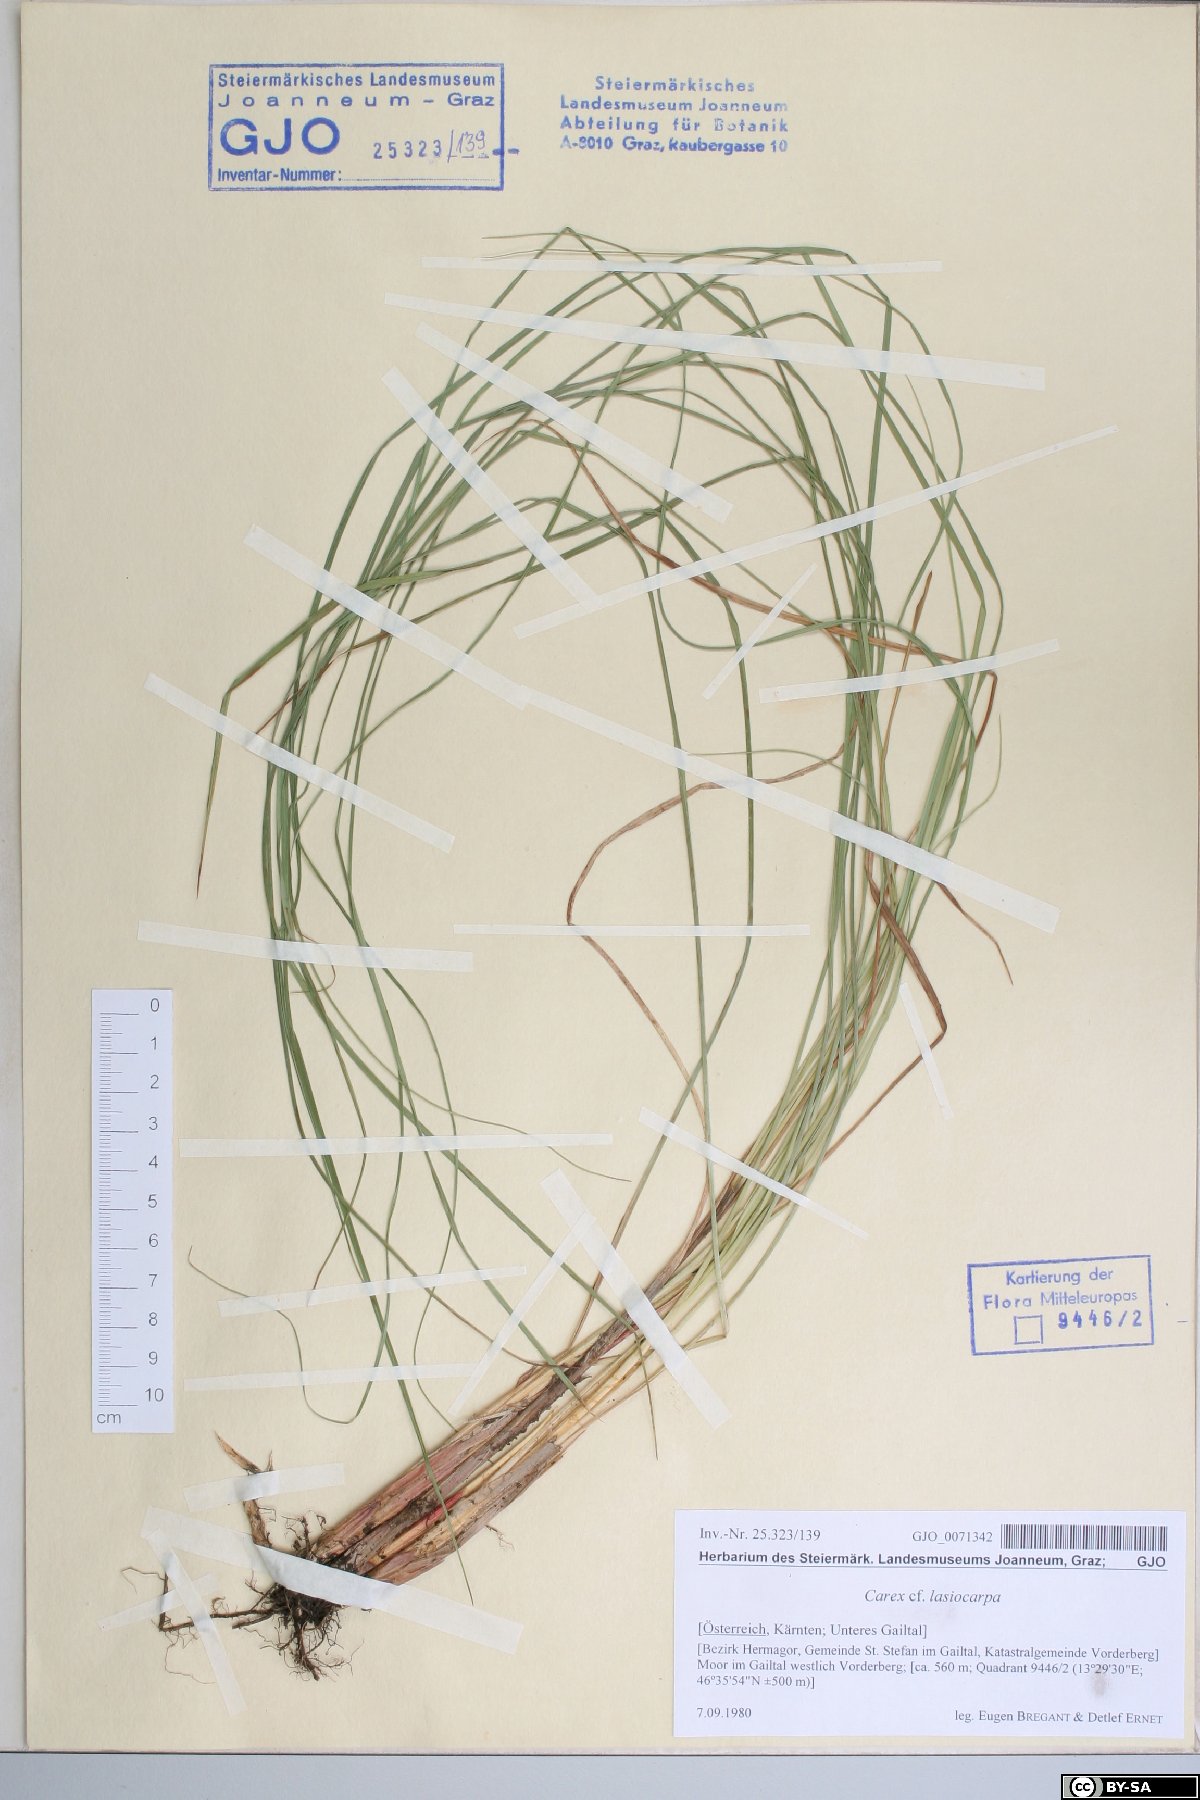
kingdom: Plantae
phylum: Tracheophyta
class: Liliopsida
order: Poales
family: Cyperaceae
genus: Carex
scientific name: Carex lasiocarpa
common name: Slender sedge
